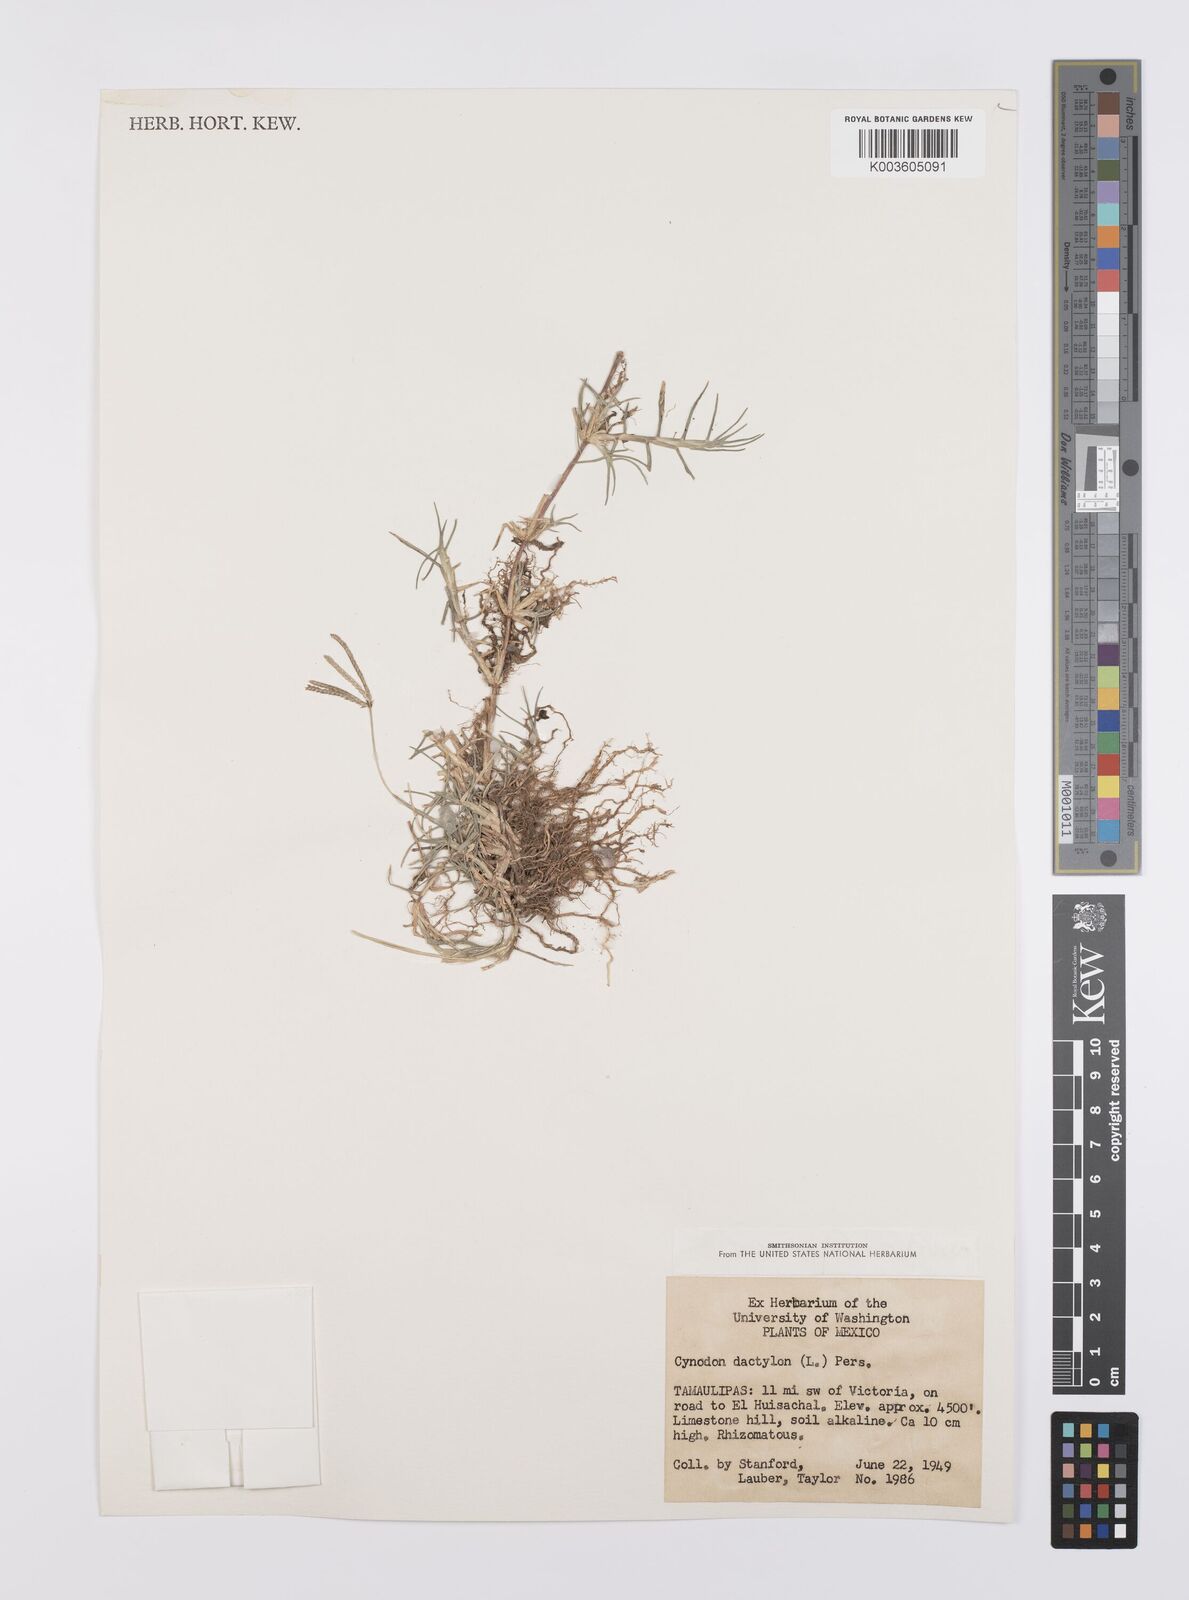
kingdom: Plantae
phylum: Tracheophyta
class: Liliopsida
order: Poales
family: Poaceae
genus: Cynodon
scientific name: Cynodon dactylon
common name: Bermuda grass
